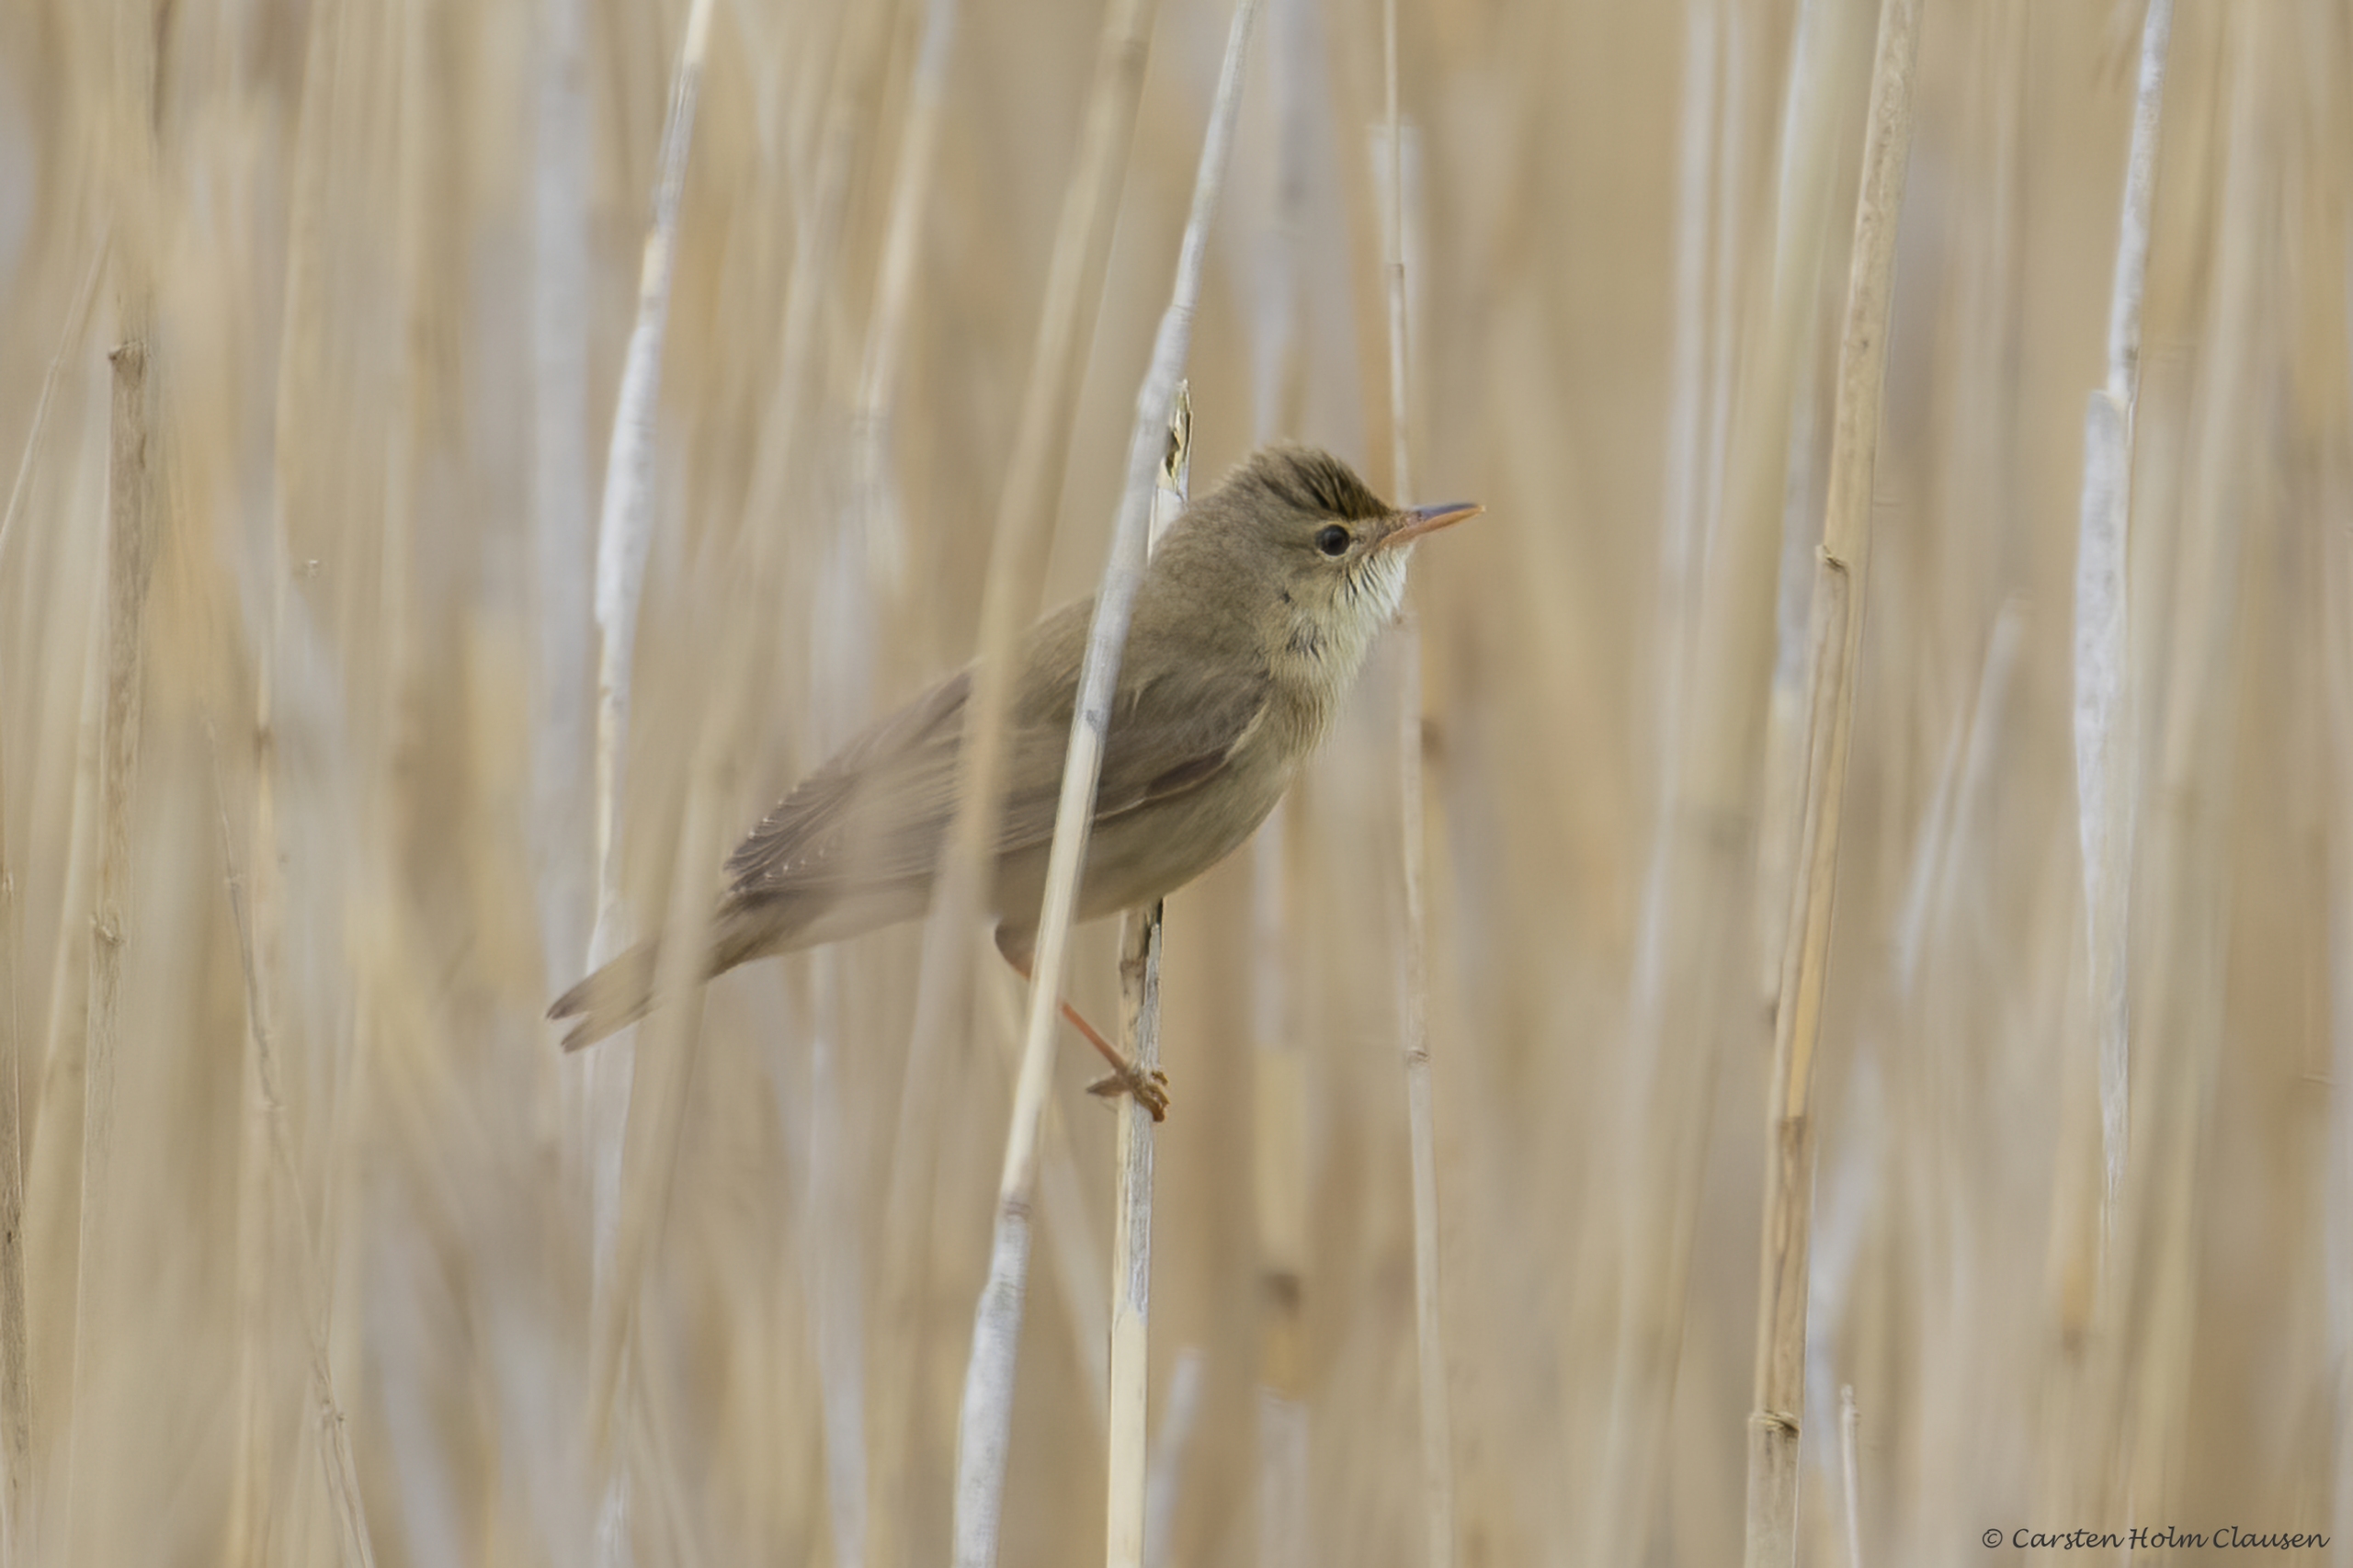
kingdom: Animalia
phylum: Chordata
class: Aves
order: Passeriformes
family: Acrocephalidae
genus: Acrocephalus
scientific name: Acrocephalus palustris
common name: Kærsanger
